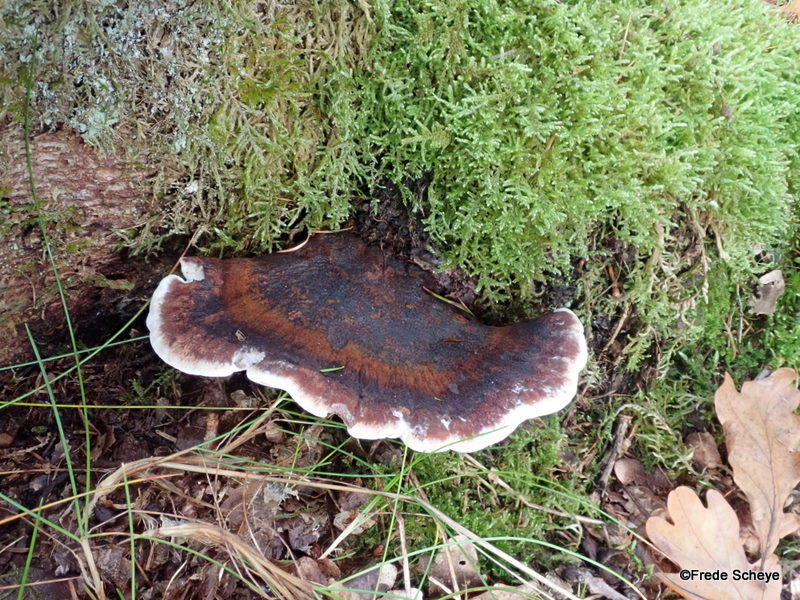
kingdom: Fungi
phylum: Basidiomycota
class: Agaricomycetes
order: Polyporales
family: Ischnodermataceae
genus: Ischnoderma
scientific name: Ischnoderma benzoinum
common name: gran-tjæreporesvamp
